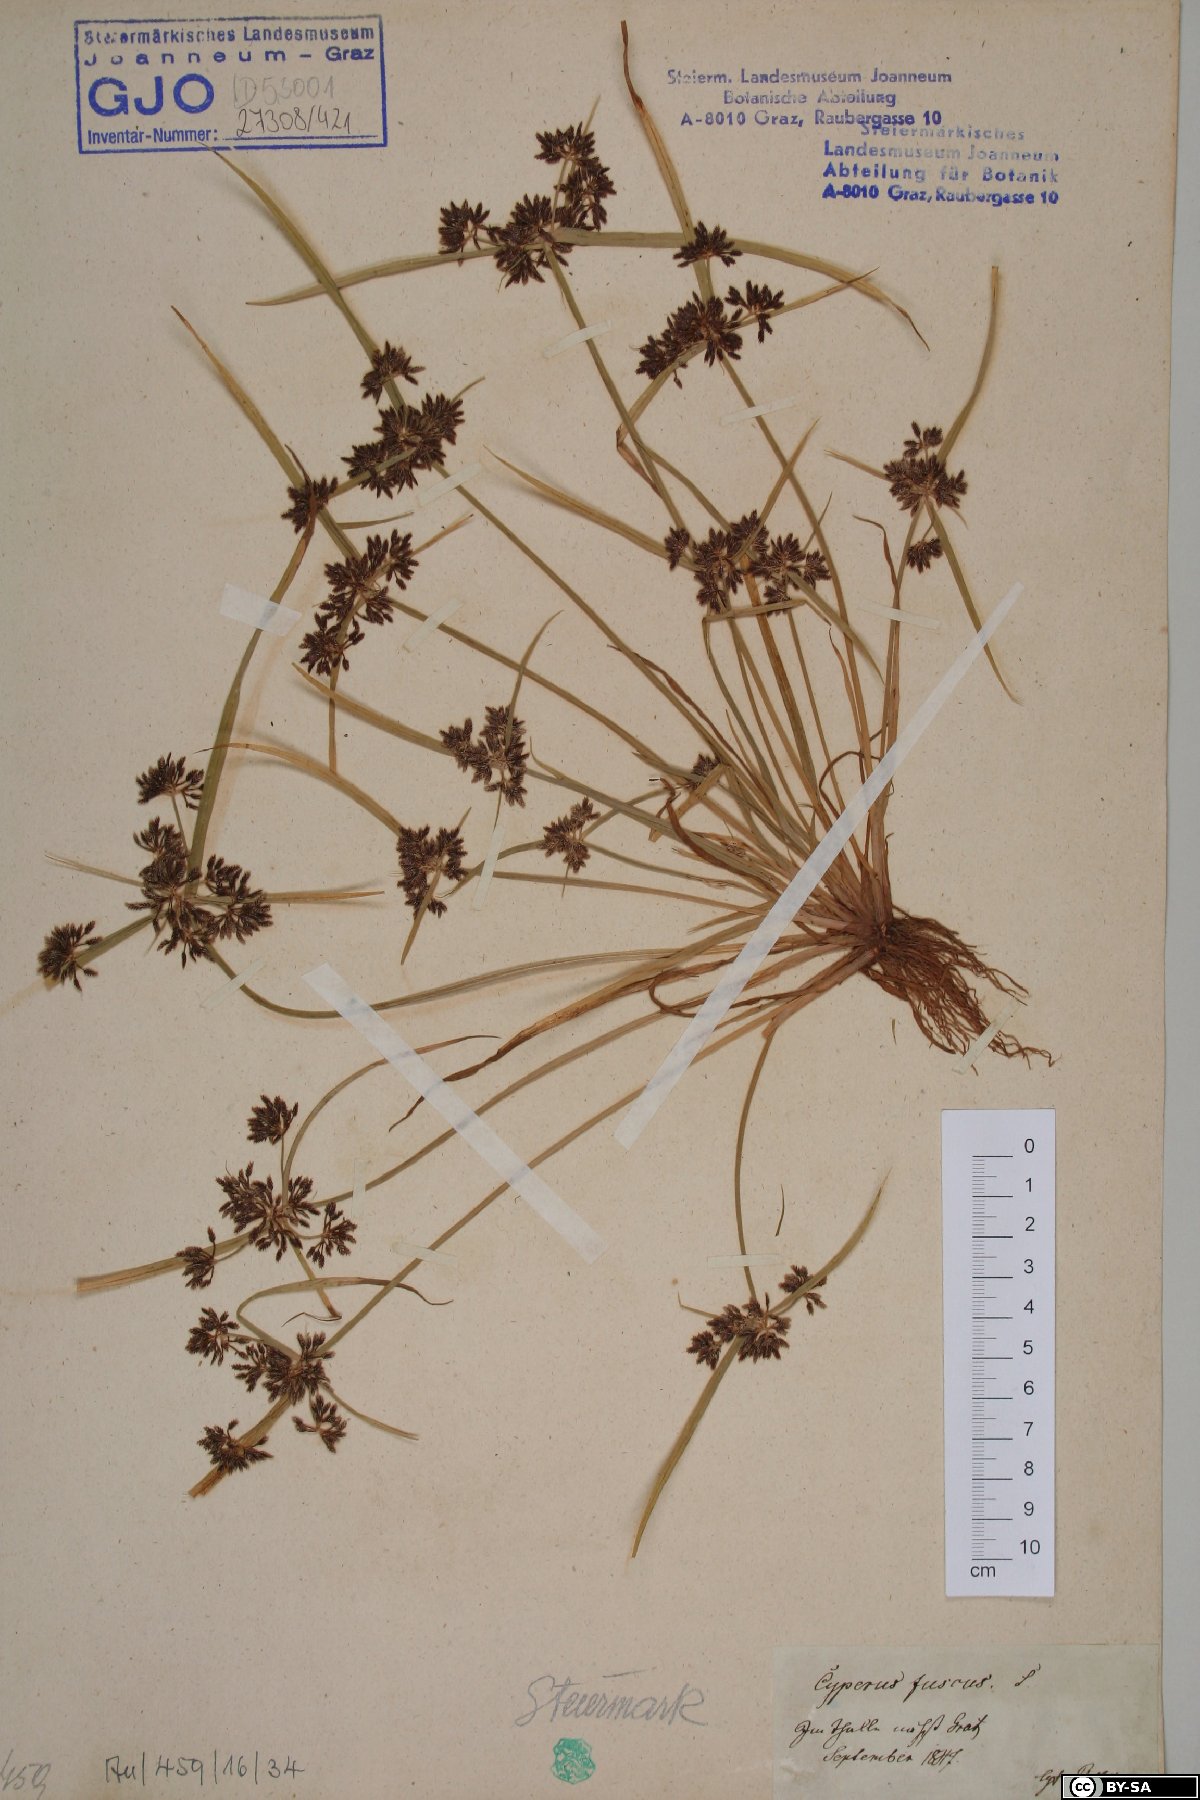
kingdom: Plantae
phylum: Tracheophyta
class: Liliopsida
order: Poales
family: Cyperaceae
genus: Cyperus
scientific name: Cyperus fuscus
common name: Brown galingale
